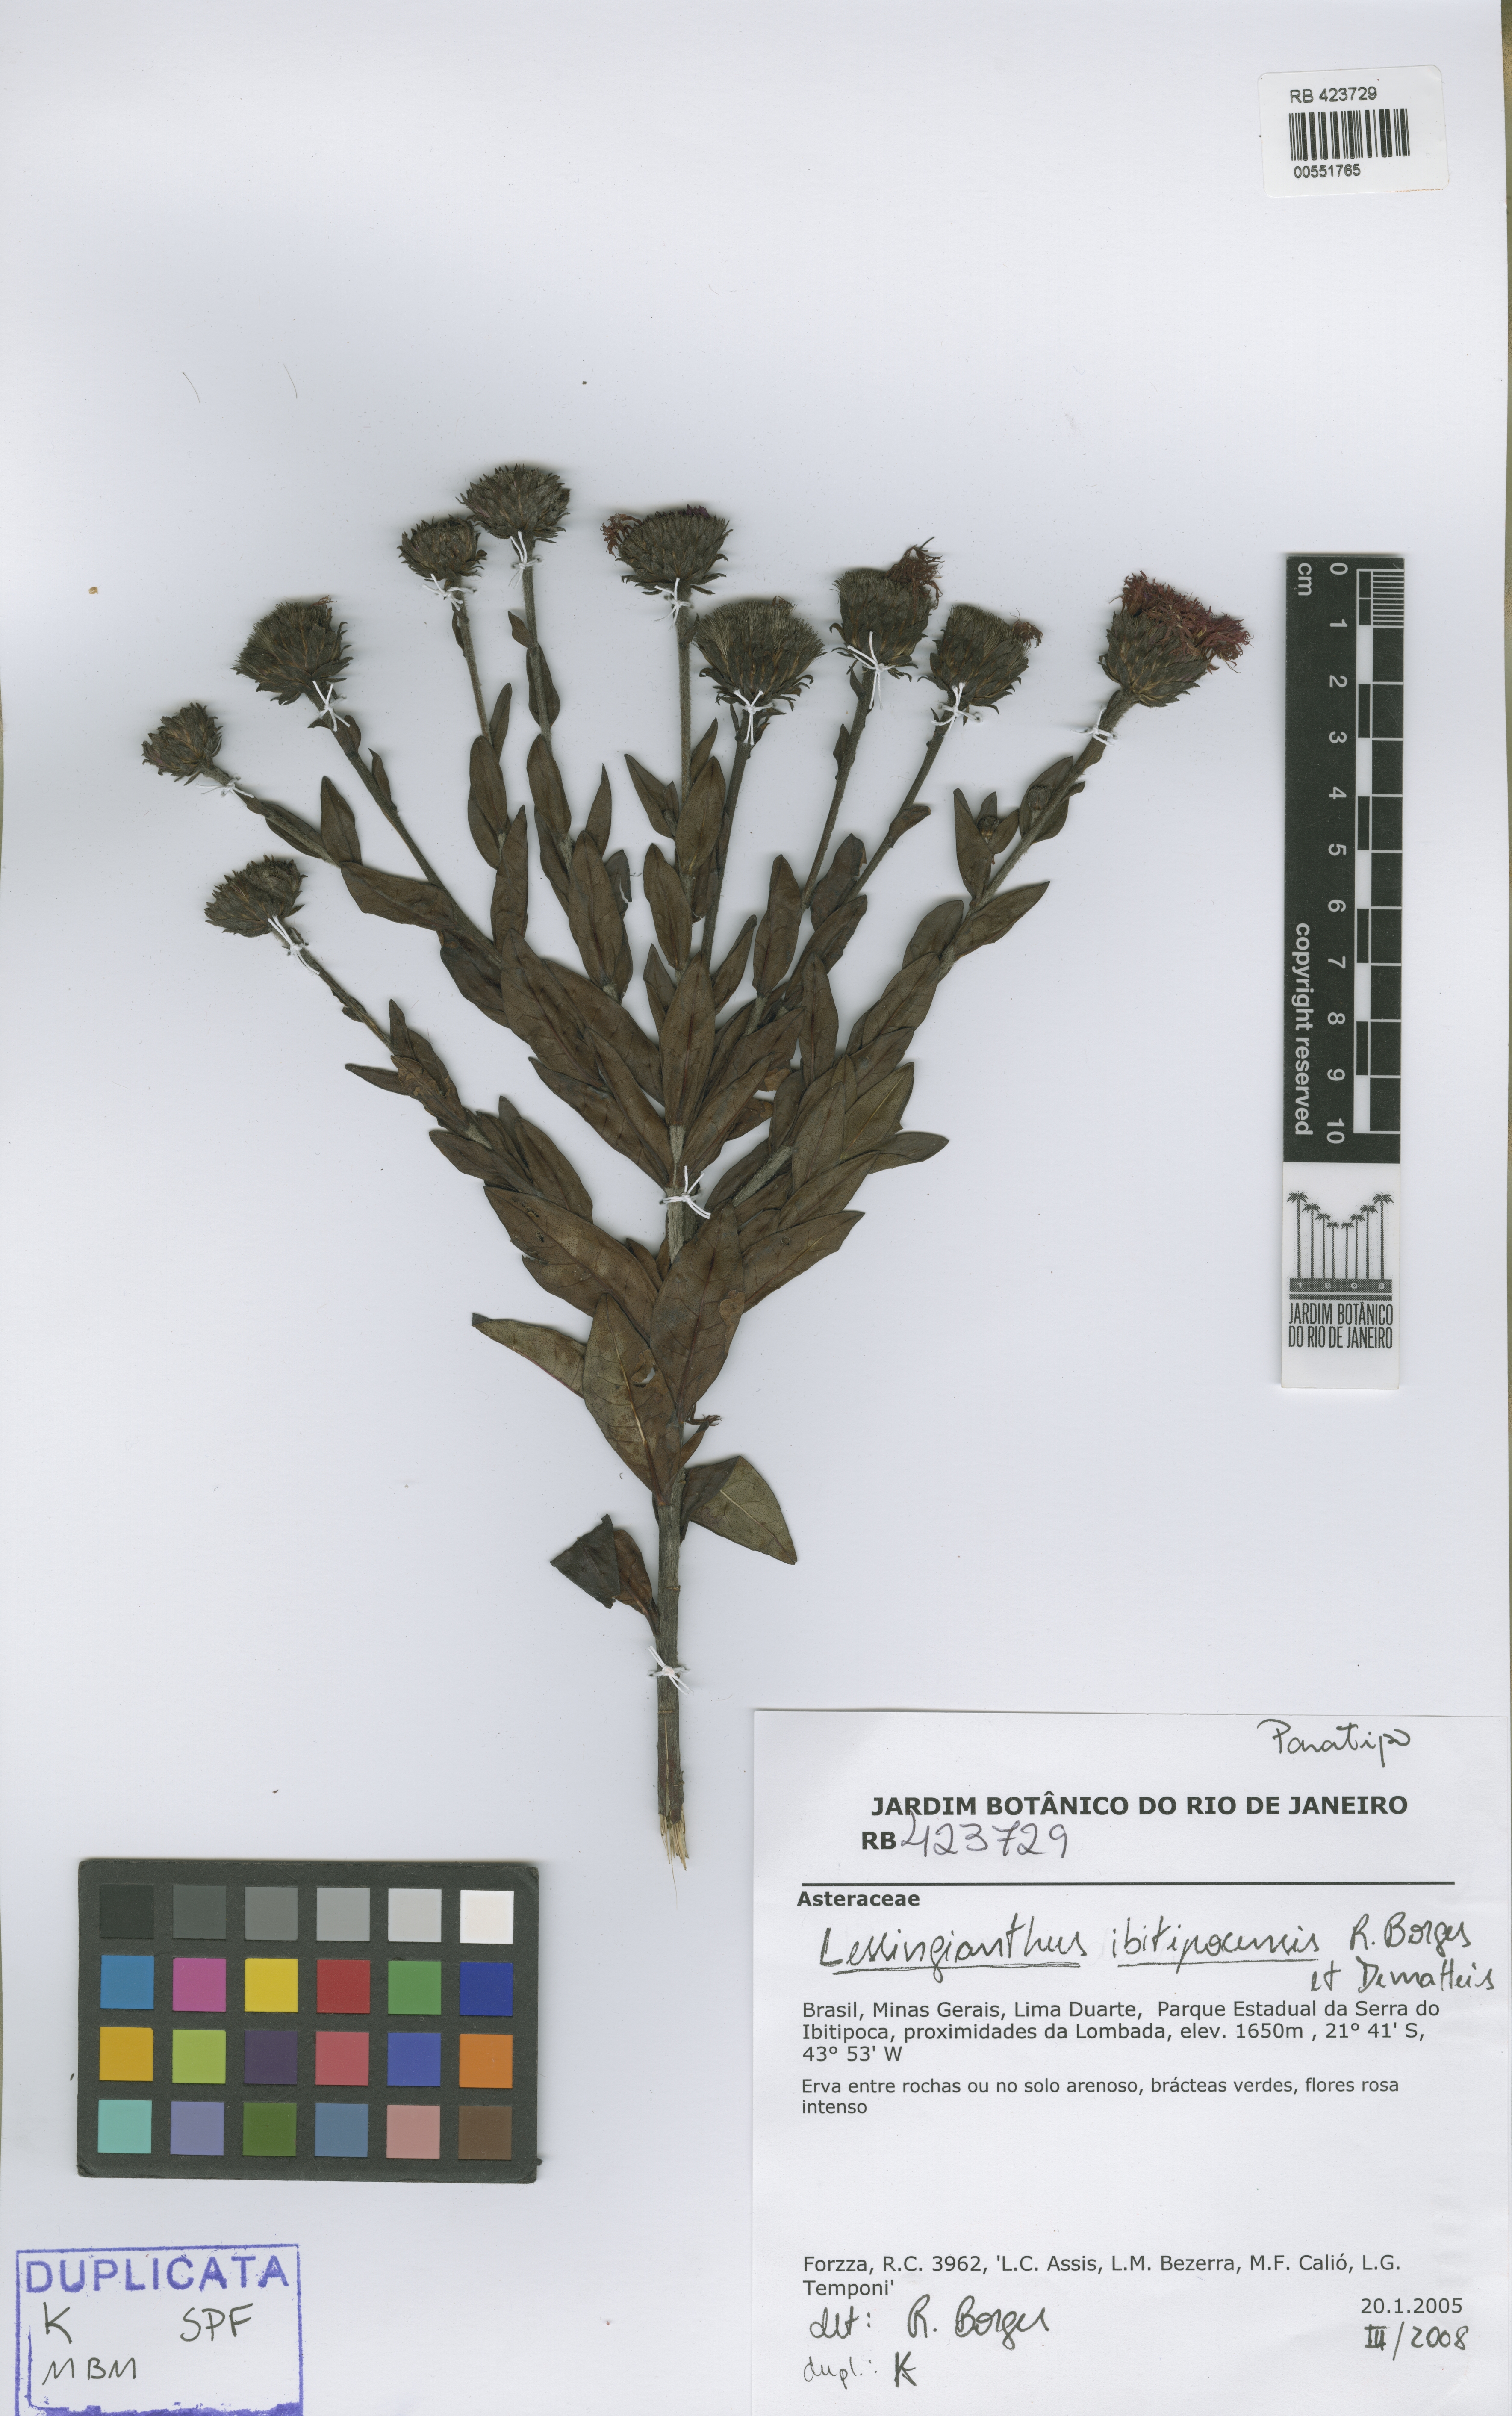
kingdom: Plantae
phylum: Tracheophyta
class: Magnoliopsida
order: Asterales
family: Asteraceae
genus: Lessingianthus
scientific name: Lessingianthus ibitipocensis
